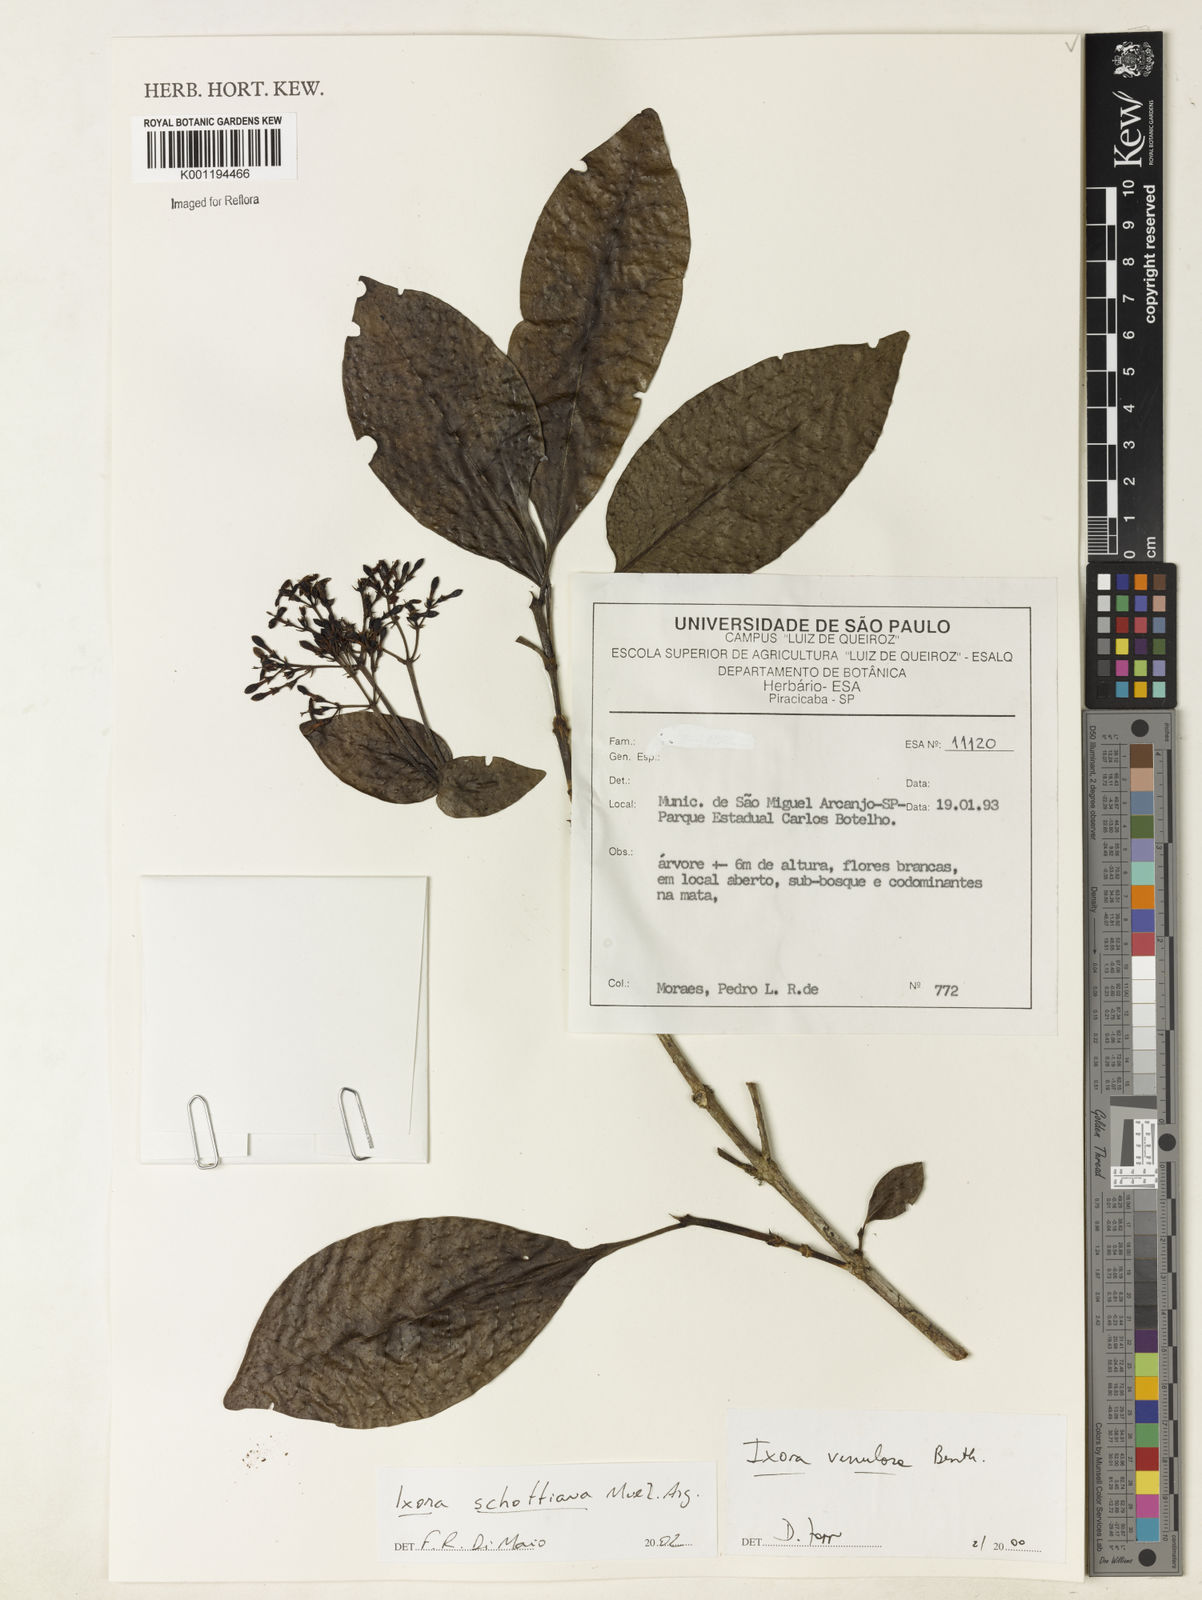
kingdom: Plantae
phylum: Tracheophyta
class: Magnoliopsida
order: Gentianales
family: Rubiaceae
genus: Ixora
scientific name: Ixora
